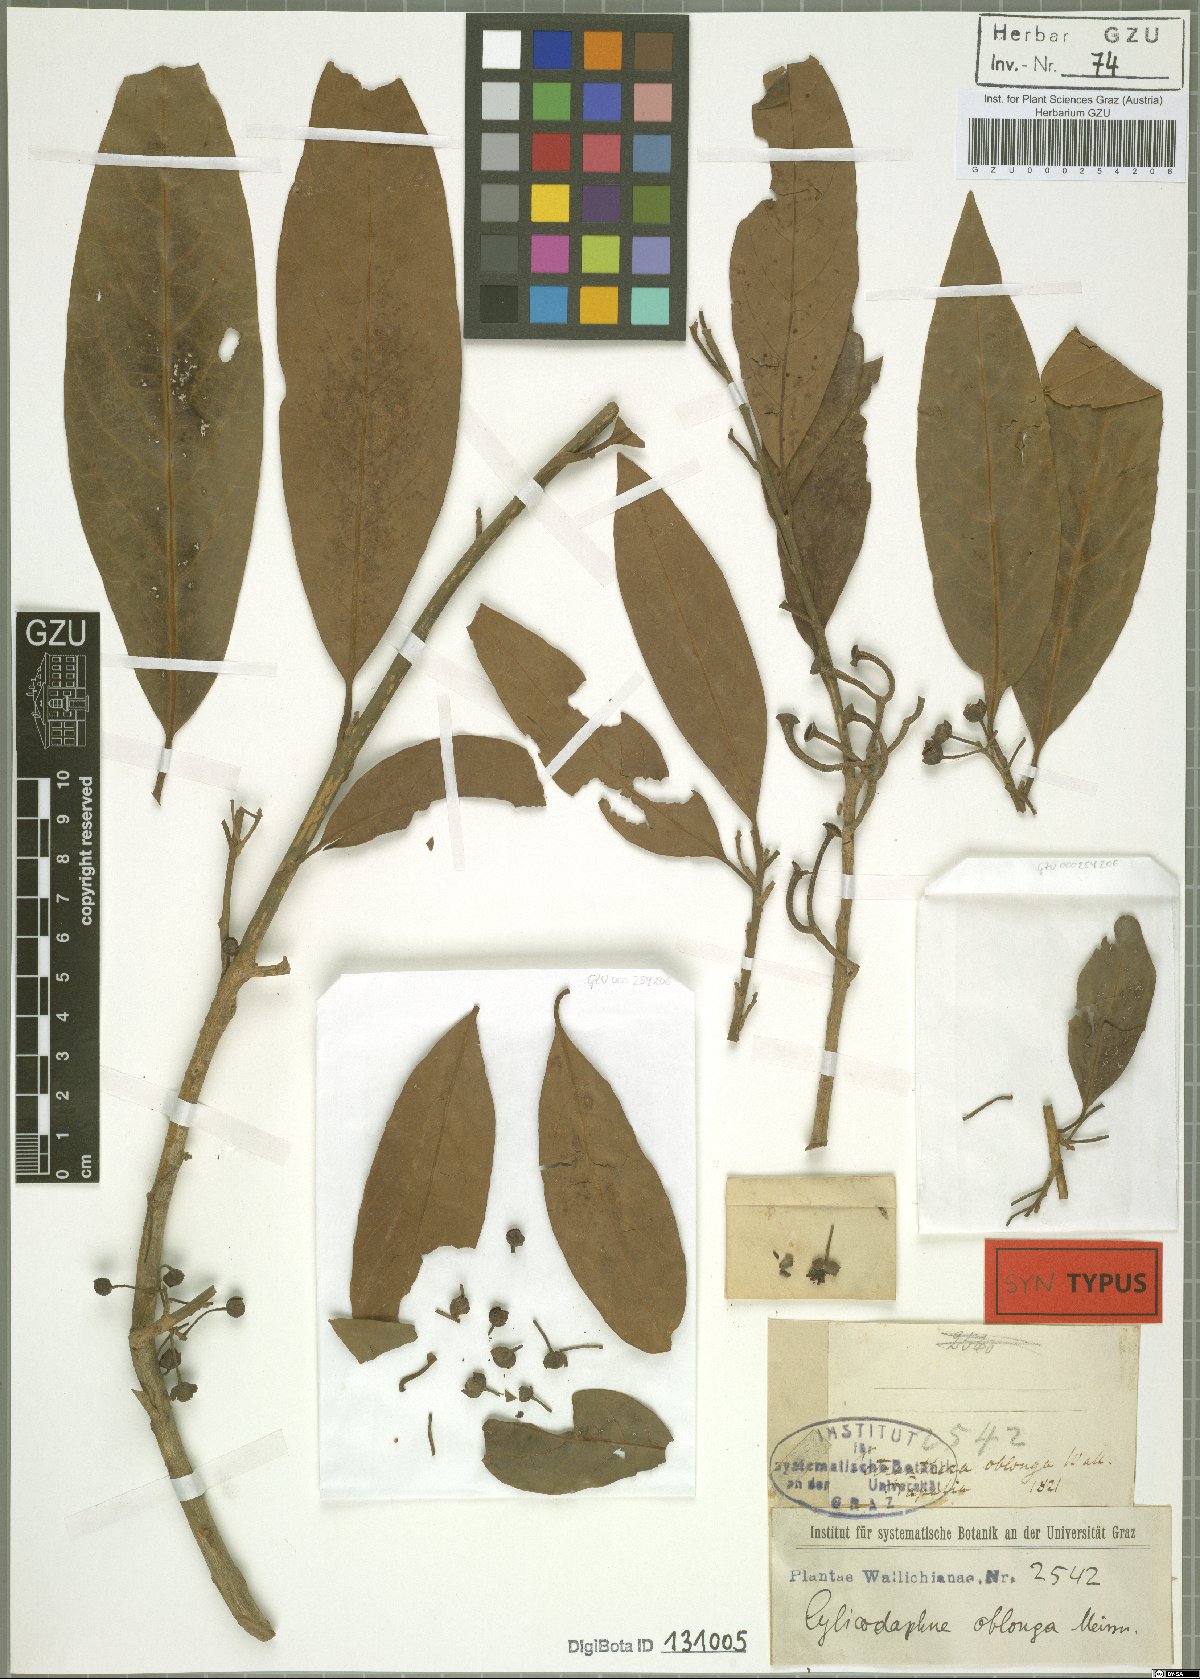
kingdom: Plantae
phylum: Tracheophyta
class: Magnoliopsida
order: Laurales
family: Lauraceae
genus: Litsea
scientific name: Litsea doshia
